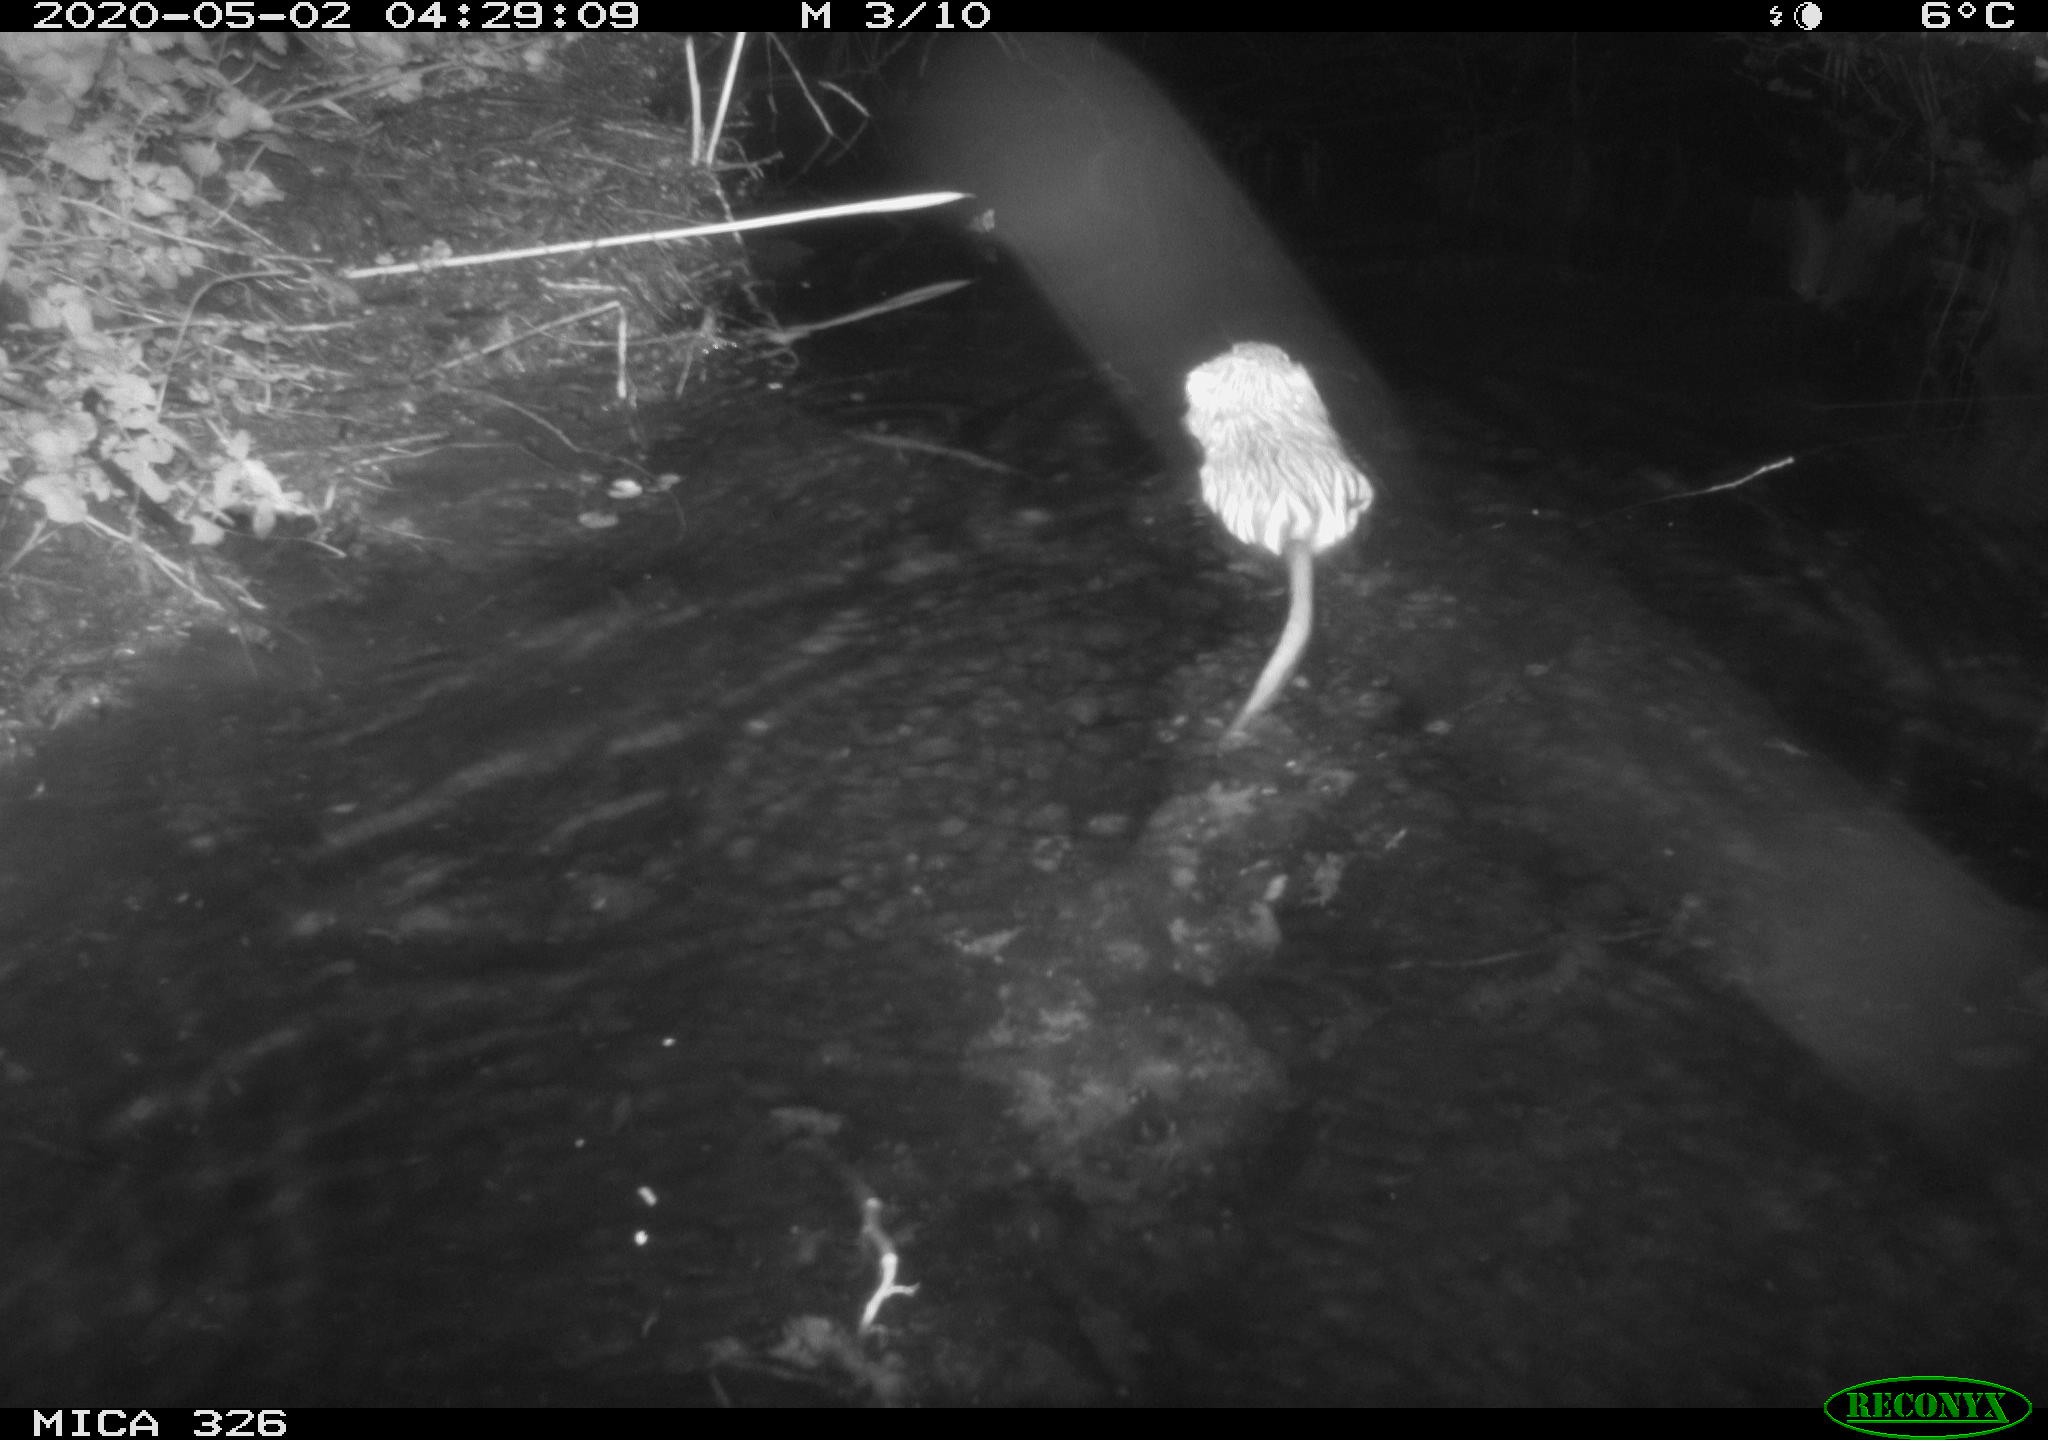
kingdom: Animalia
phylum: Chordata
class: Mammalia
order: Rodentia
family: Myocastoridae
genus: Myocastor
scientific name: Myocastor coypus
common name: Coypu
